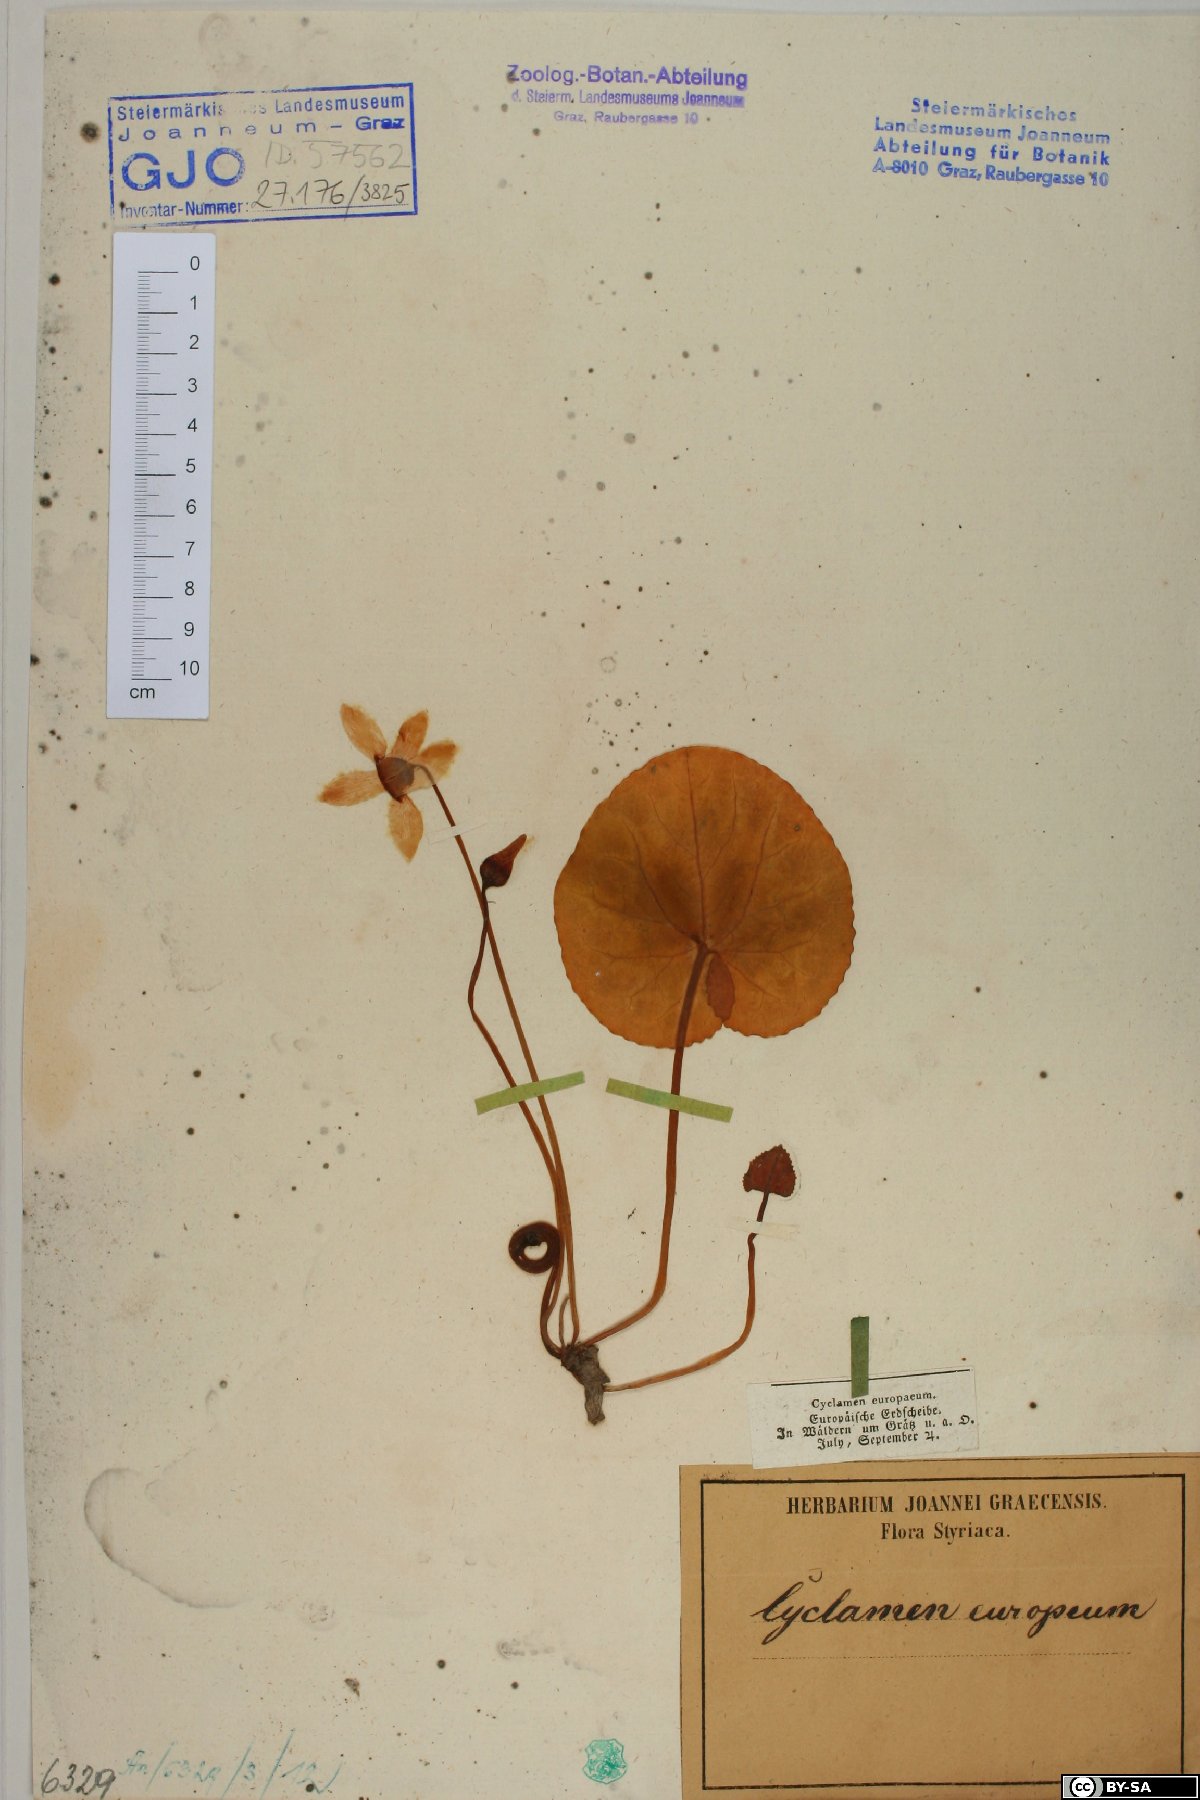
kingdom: Plantae
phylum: Tracheophyta
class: Magnoliopsida
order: Ericales
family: Primulaceae
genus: Cyclamen
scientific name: Cyclamen purpurascens
